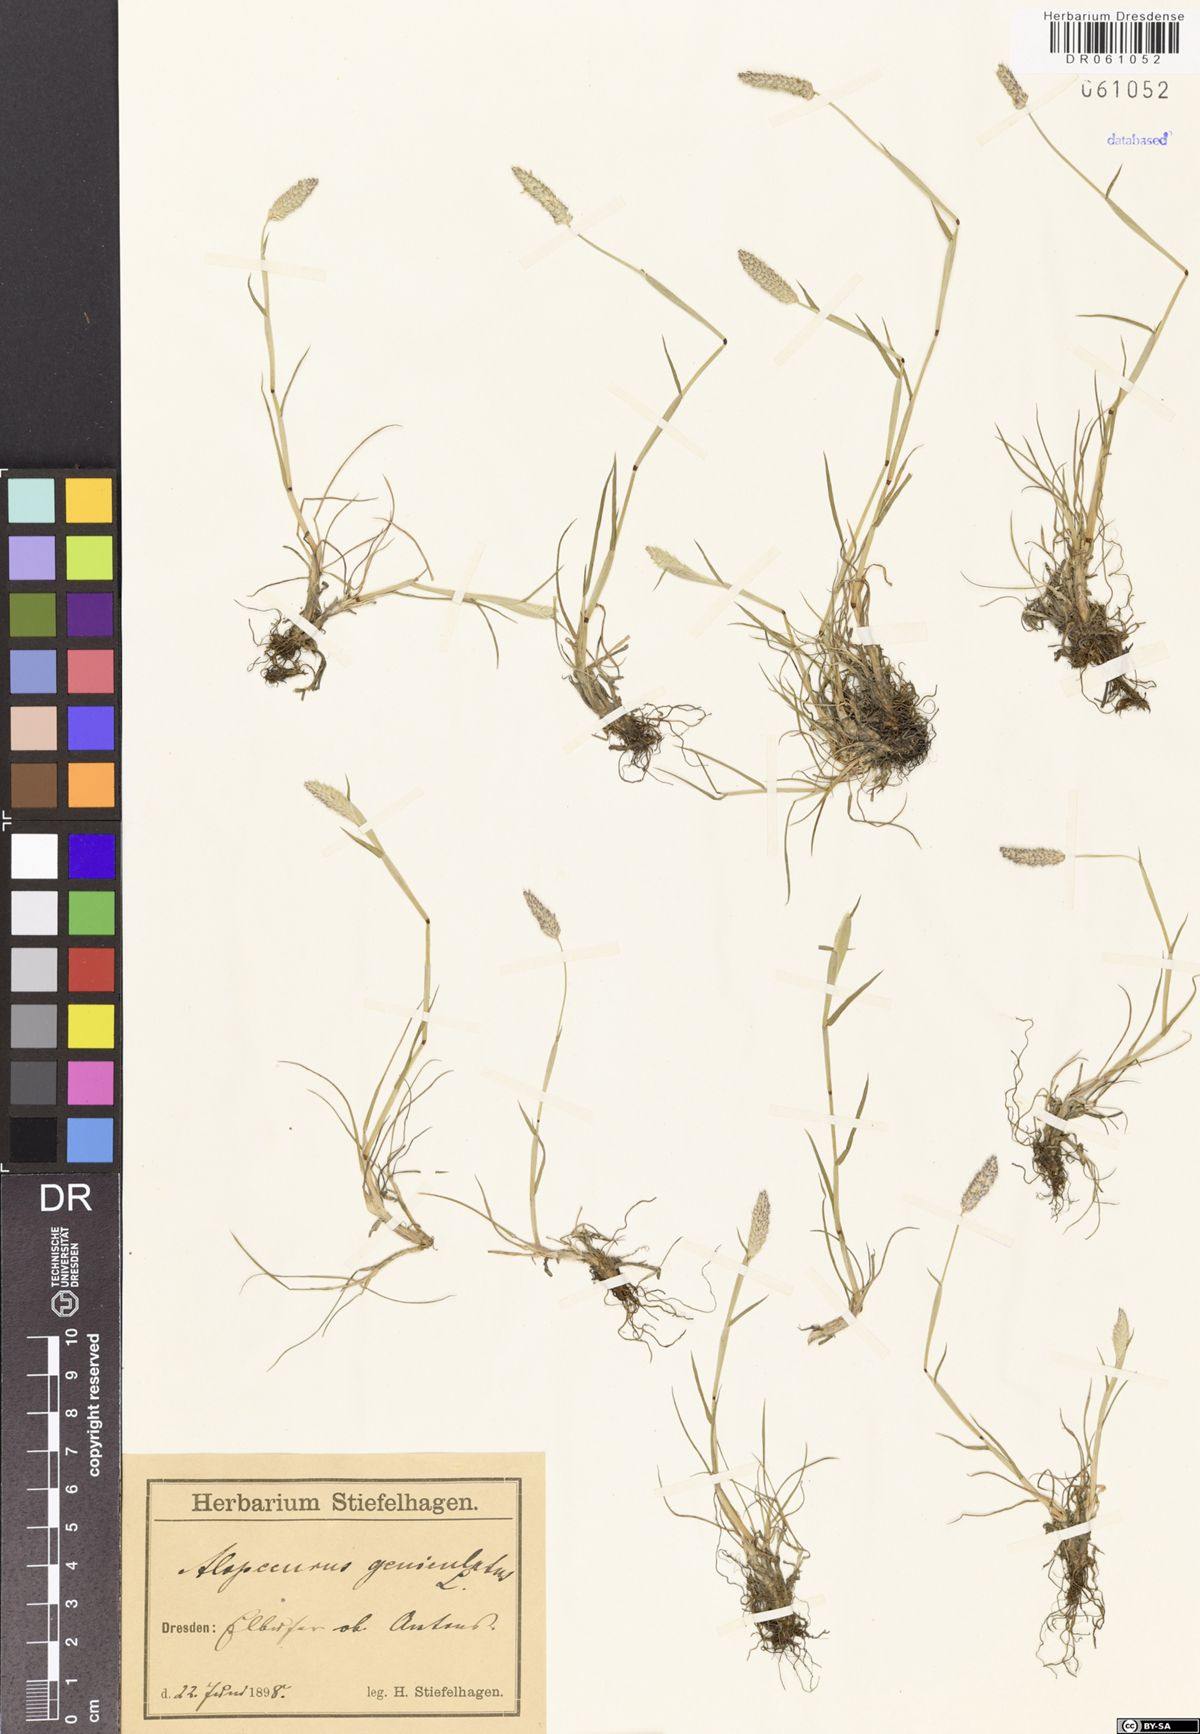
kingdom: Plantae
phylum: Tracheophyta
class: Liliopsida
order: Poales
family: Poaceae
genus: Alopecurus
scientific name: Alopecurus geniculatus
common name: Water foxtail
